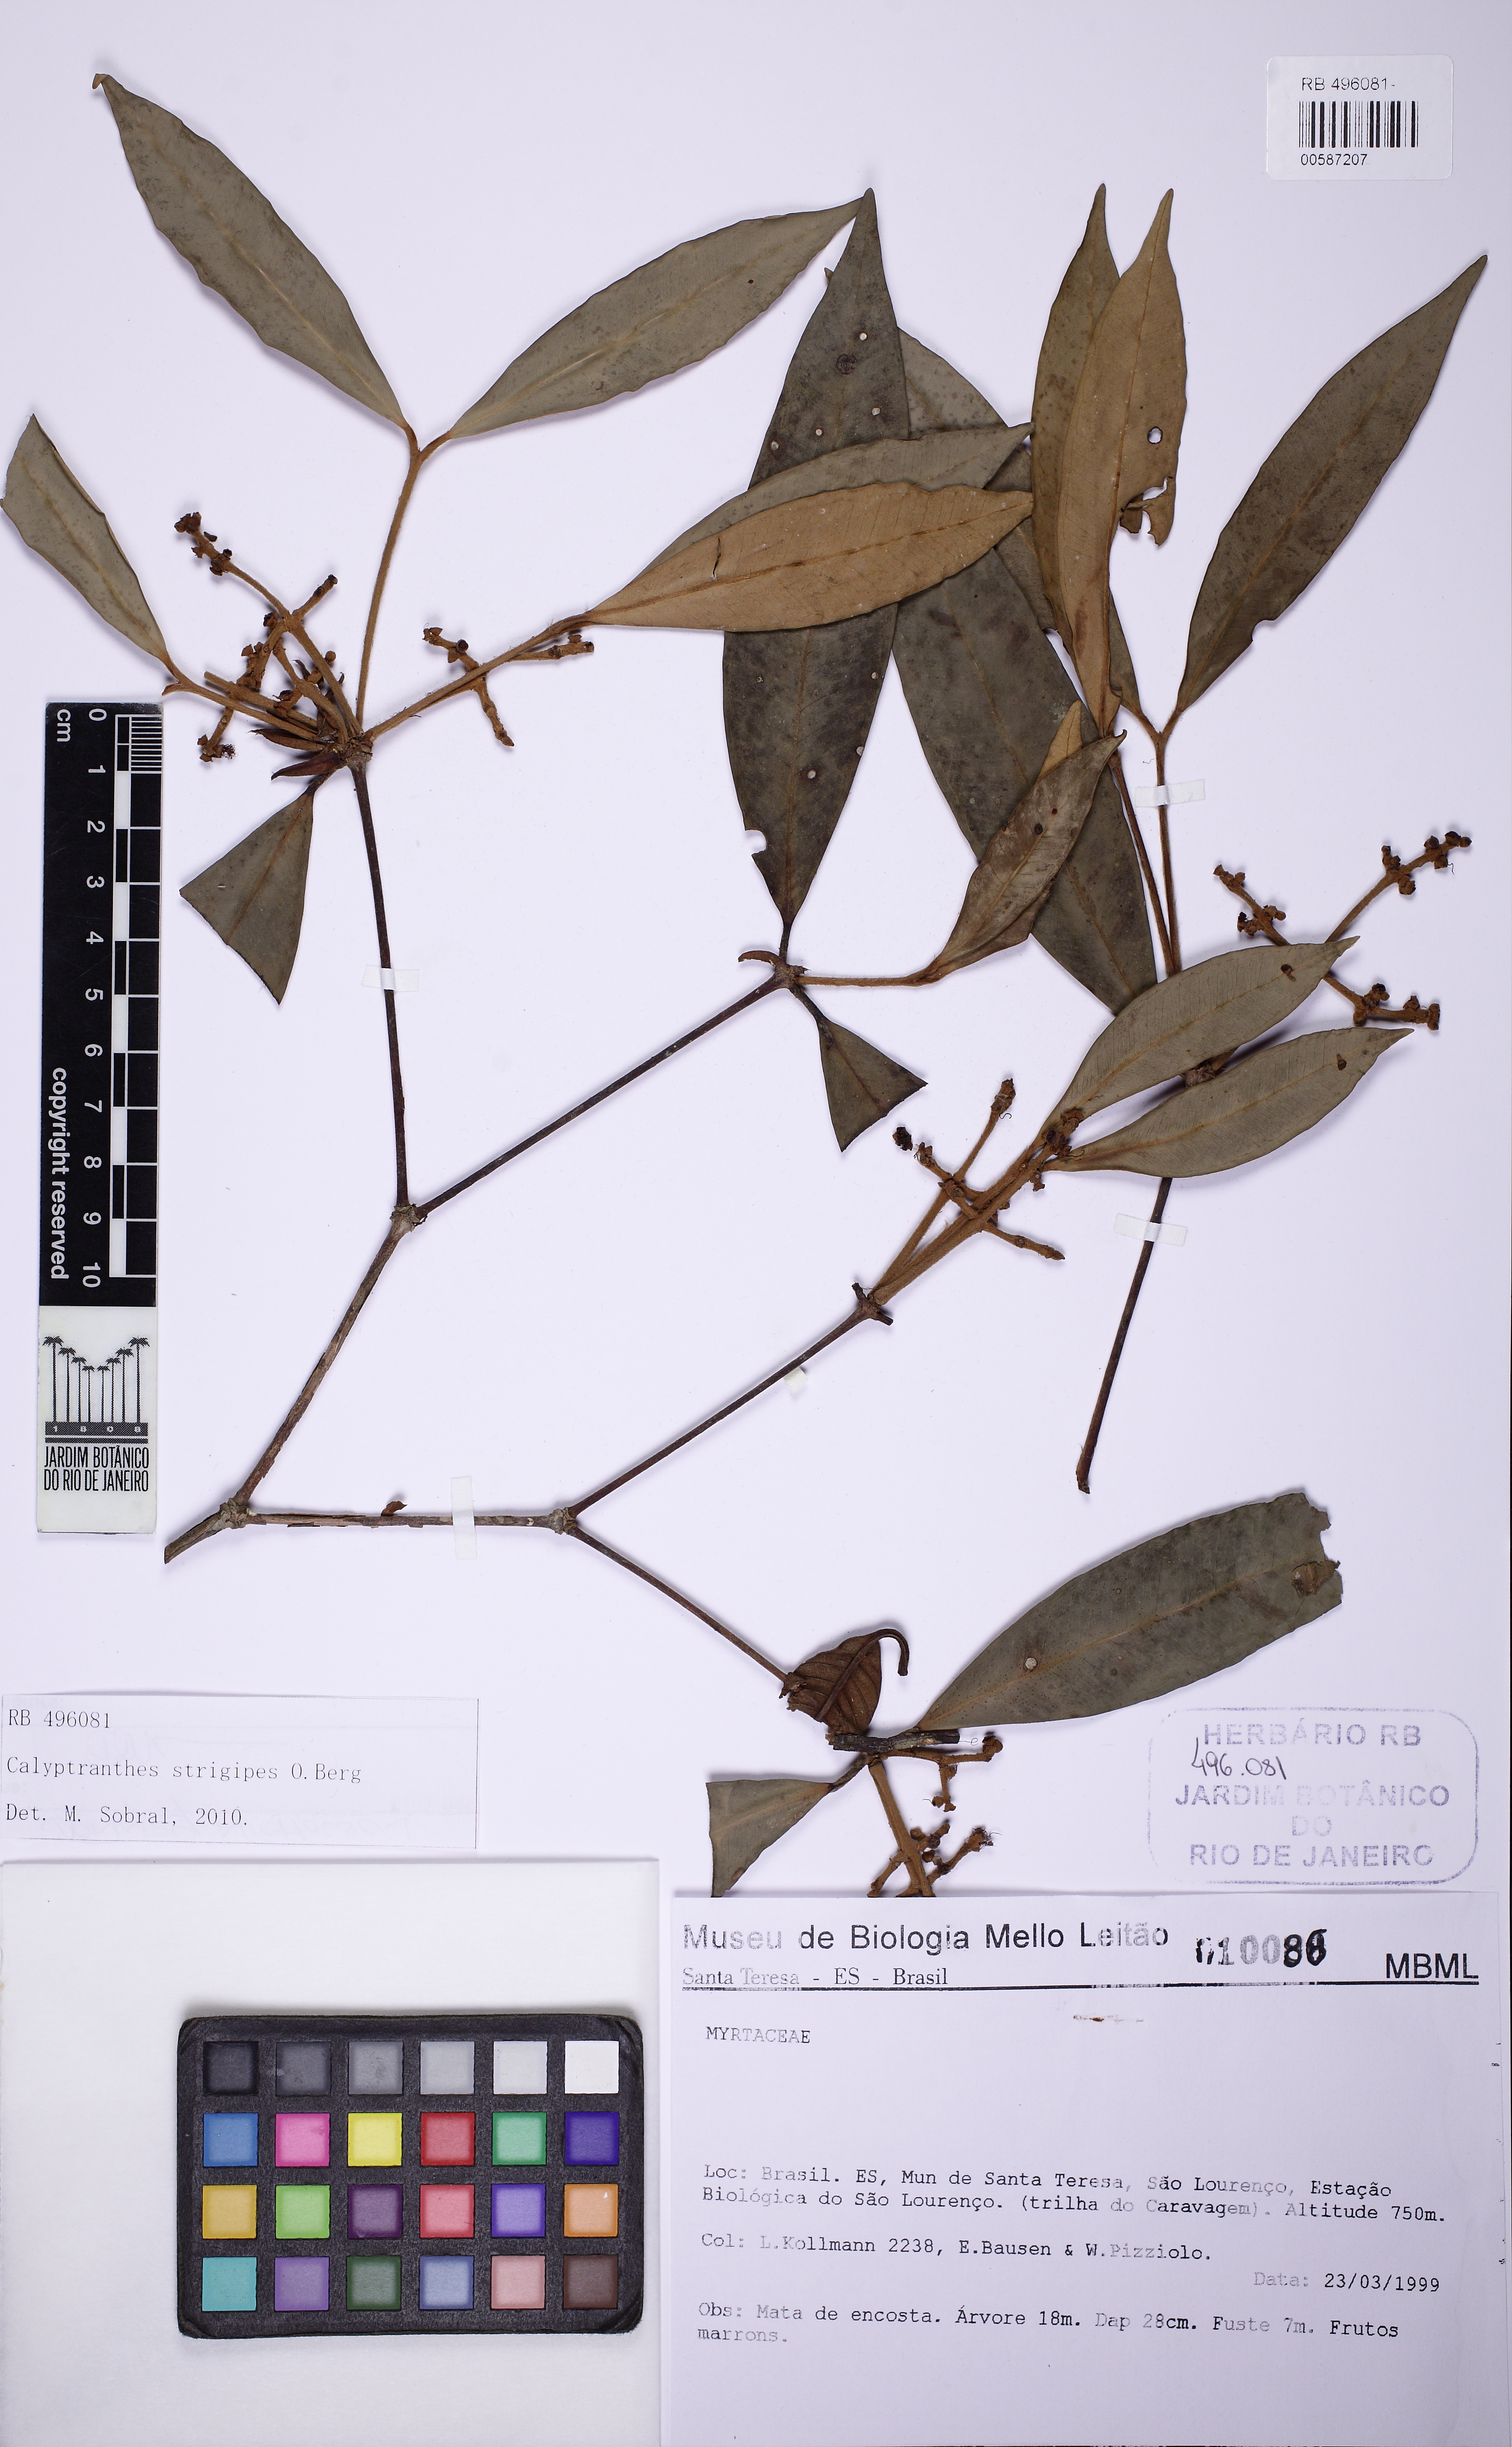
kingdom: Plantae
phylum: Tracheophyta
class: Magnoliopsida
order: Myrtales
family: Myrtaceae
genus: Calyptranthes
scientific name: Calyptranthes rufa
